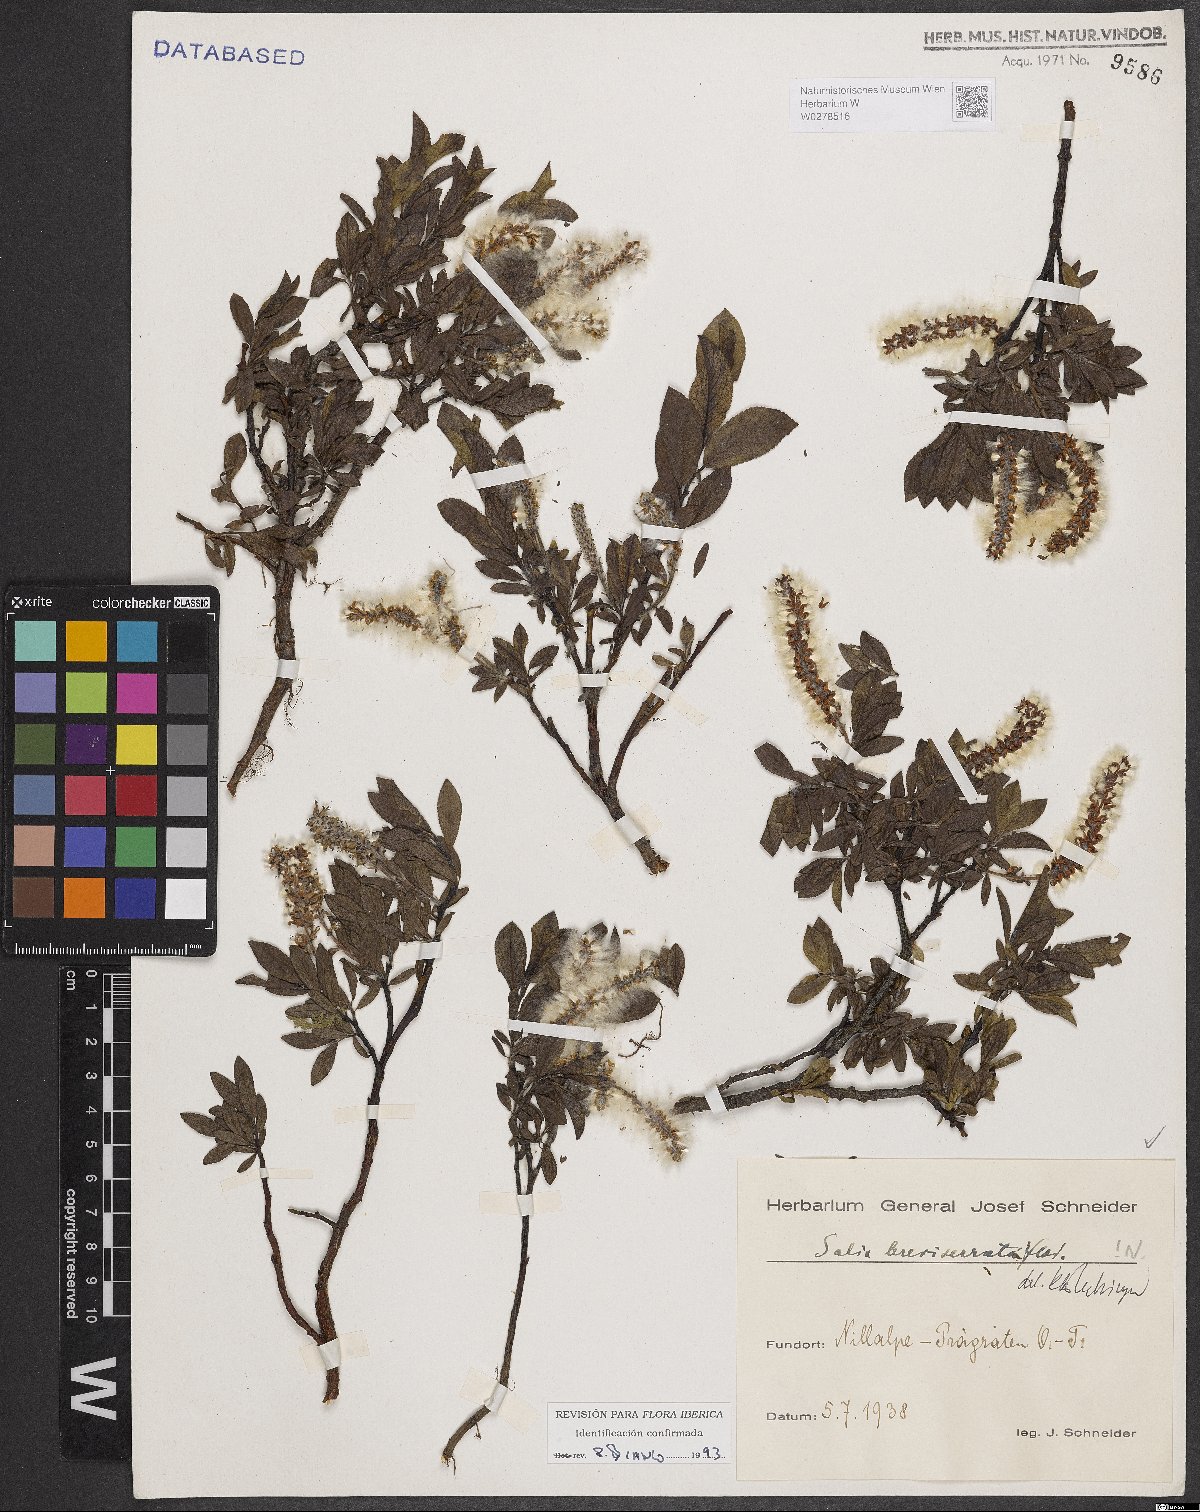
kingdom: Plantae
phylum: Tracheophyta
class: Magnoliopsida
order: Malpighiales
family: Salicaceae
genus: Salix
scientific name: Salix breviserrata
